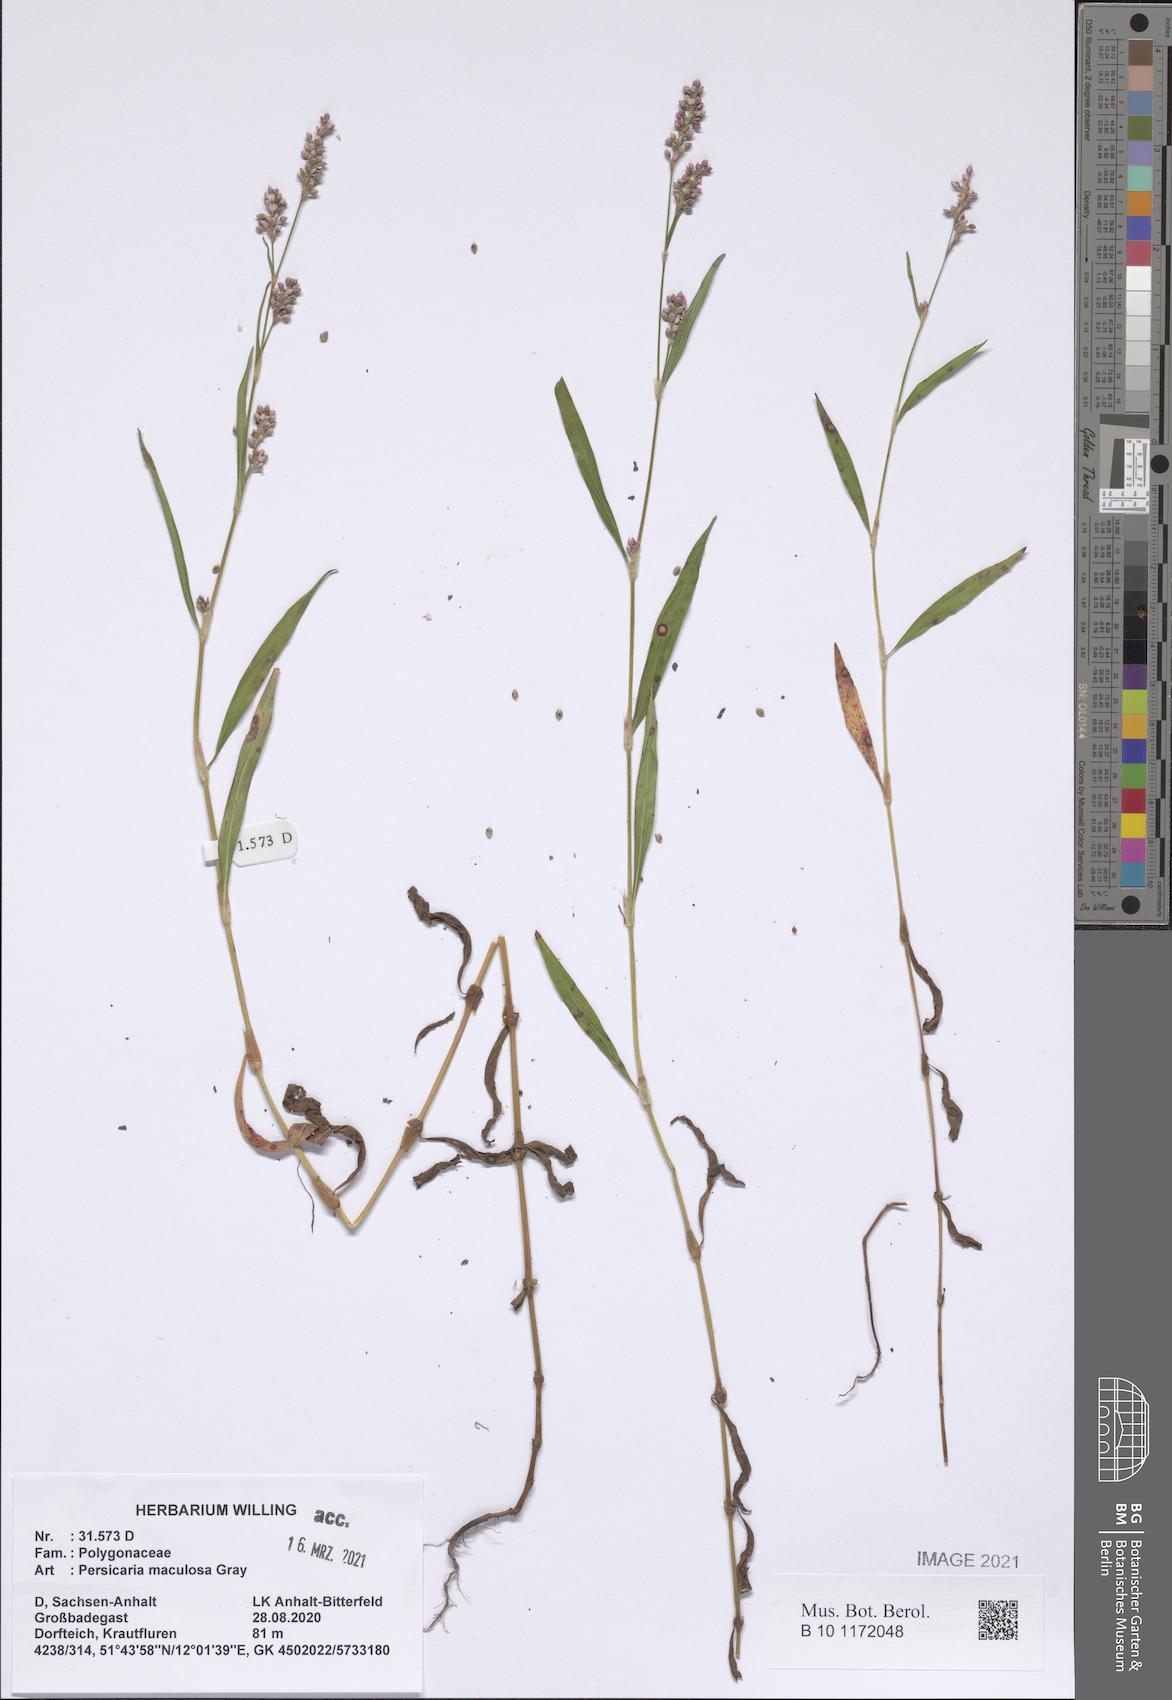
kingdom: Plantae
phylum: Tracheophyta
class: Magnoliopsida
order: Caryophyllales
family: Polygonaceae
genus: Persicaria
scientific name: Persicaria maculosa
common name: Redshank
